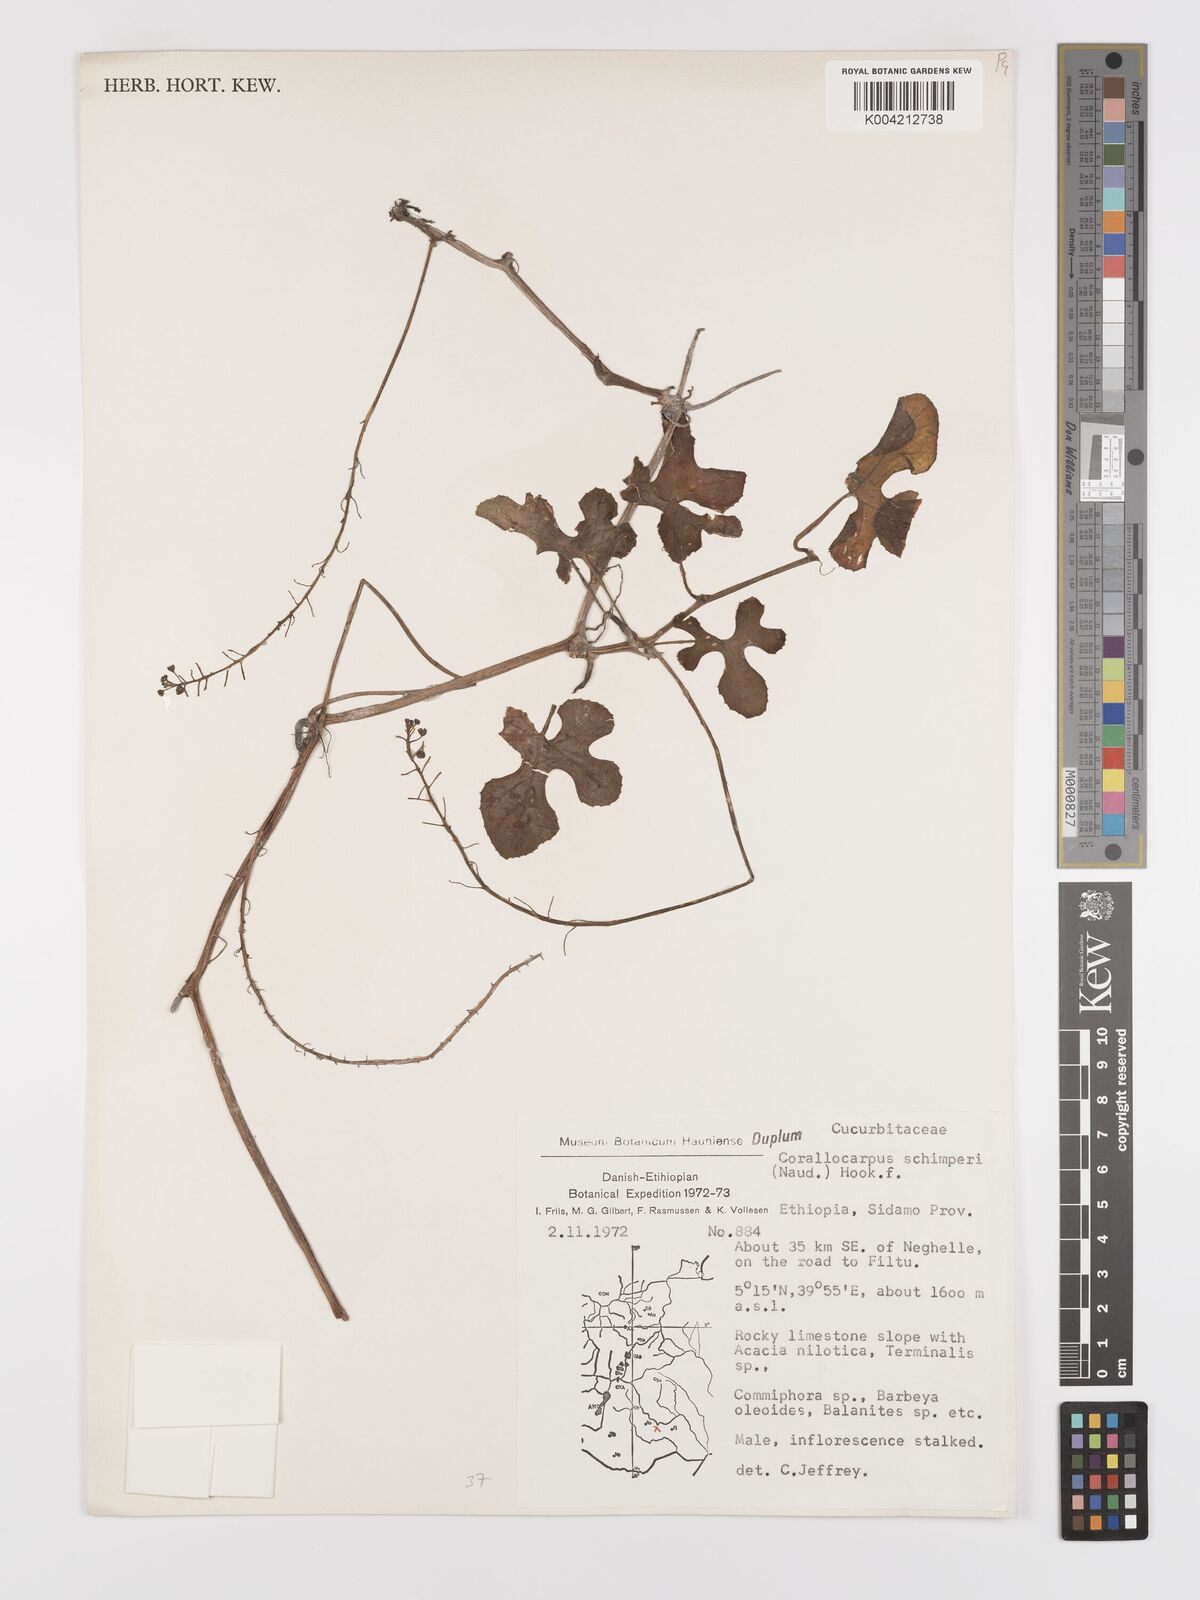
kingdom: Plantae
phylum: Tracheophyta
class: Magnoliopsida
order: Cucurbitales
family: Cucurbitaceae
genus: Corallocarpus
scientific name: Corallocarpus schimperi
